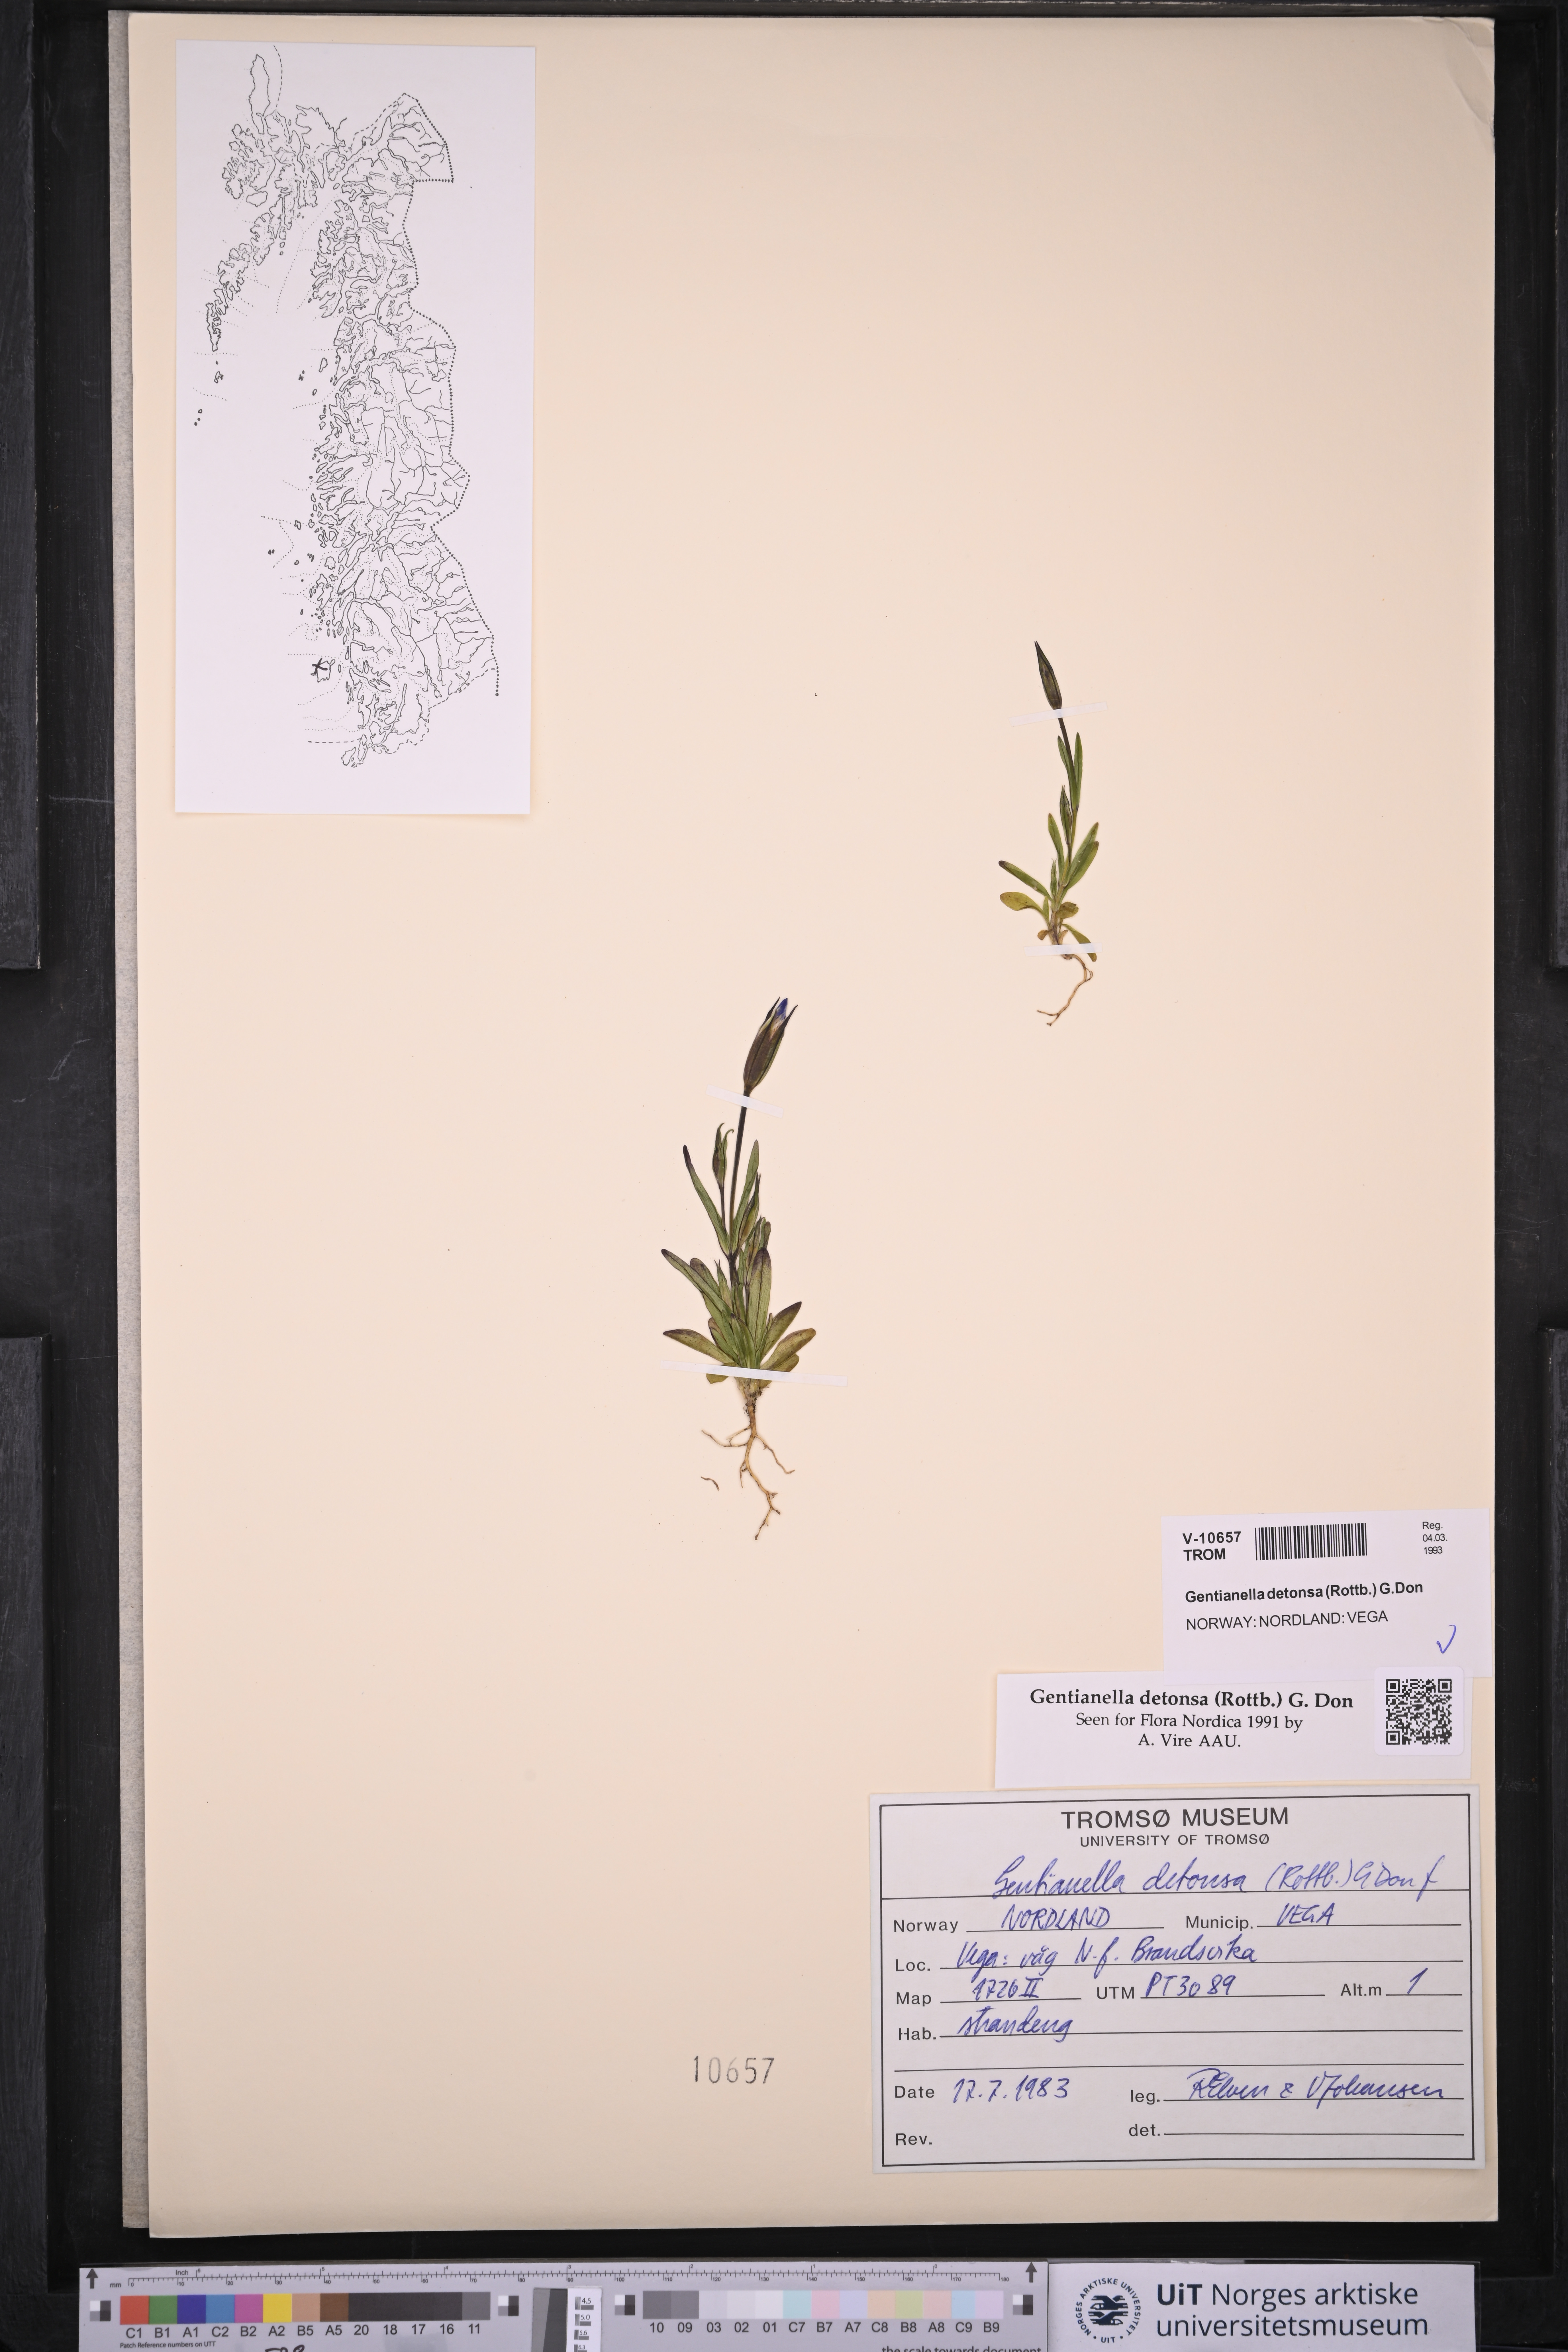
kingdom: Plantae
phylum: Tracheophyta
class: Magnoliopsida
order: Gentianales
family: Gentianaceae
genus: Gentianopsis
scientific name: Gentianopsis detonsa
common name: Fringed-gentian
